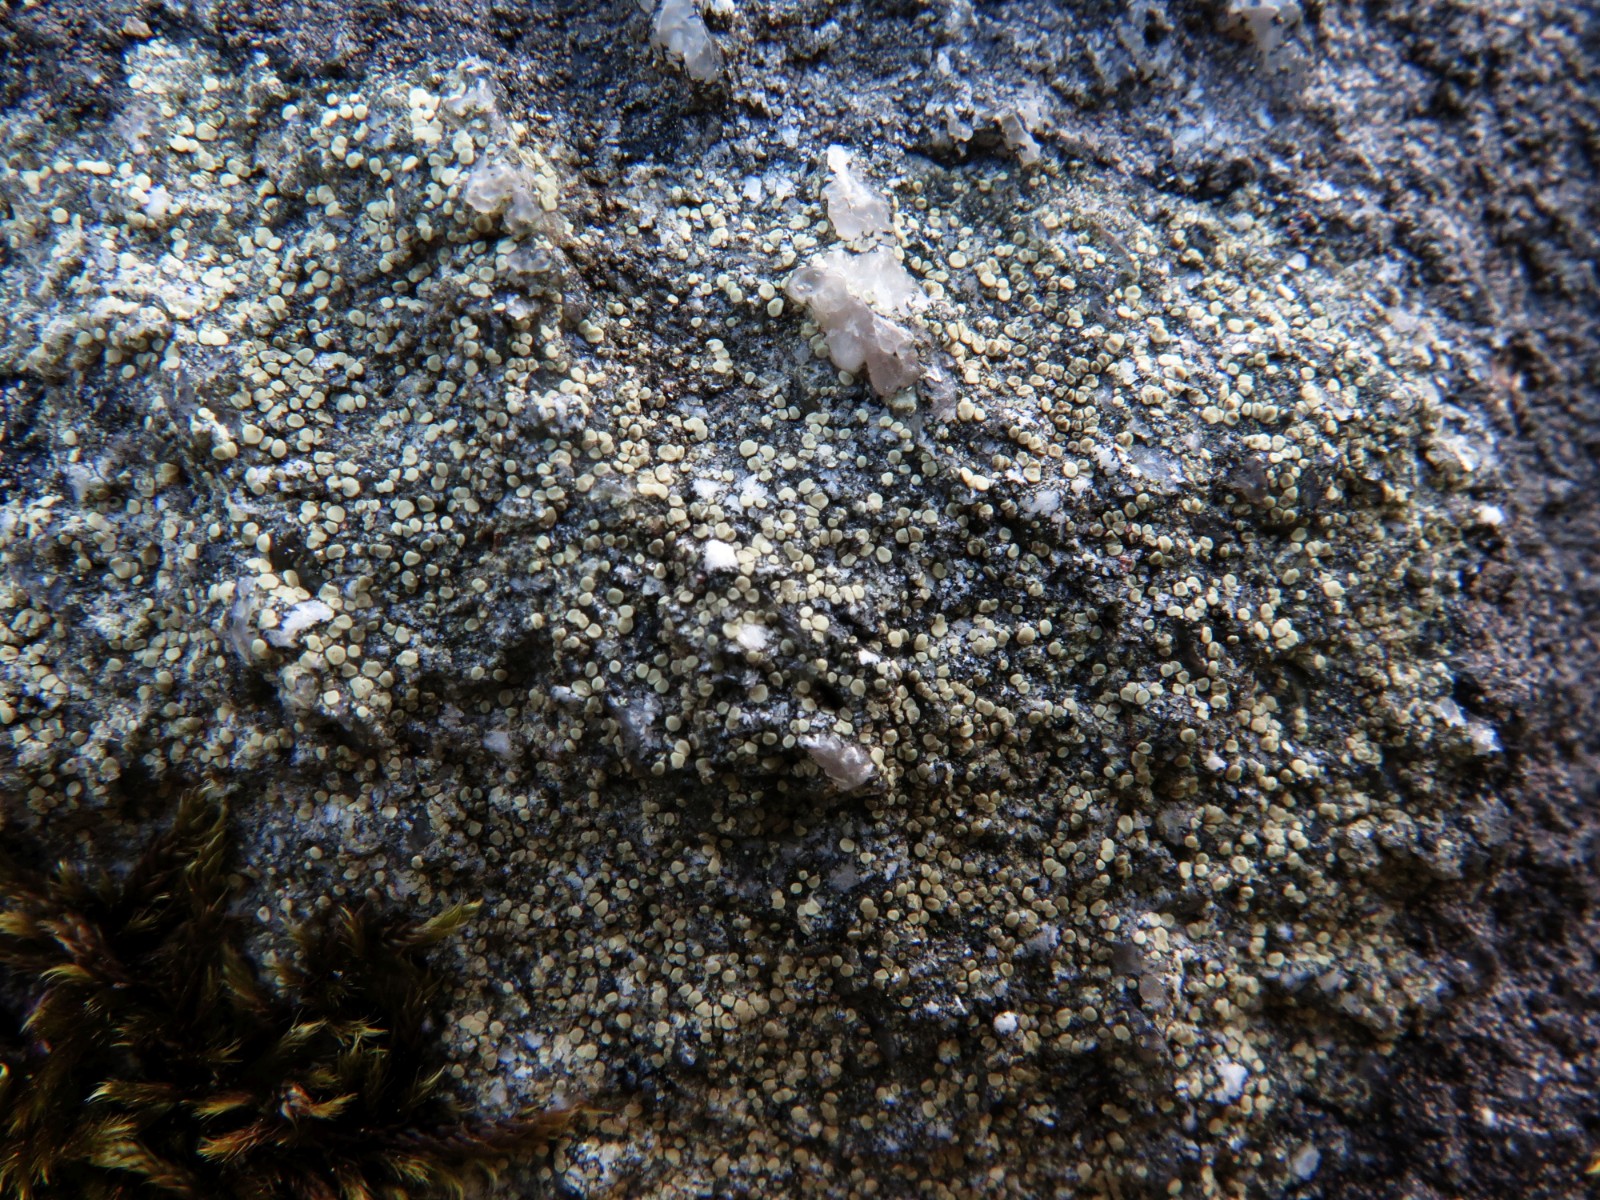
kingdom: Fungi
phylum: Ascomycota
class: Lecanoromycetes
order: Lecanorales
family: Lecanoraceae
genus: Lecanora
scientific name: Lecanora polytropa
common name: bleggrøn kantskivelav
